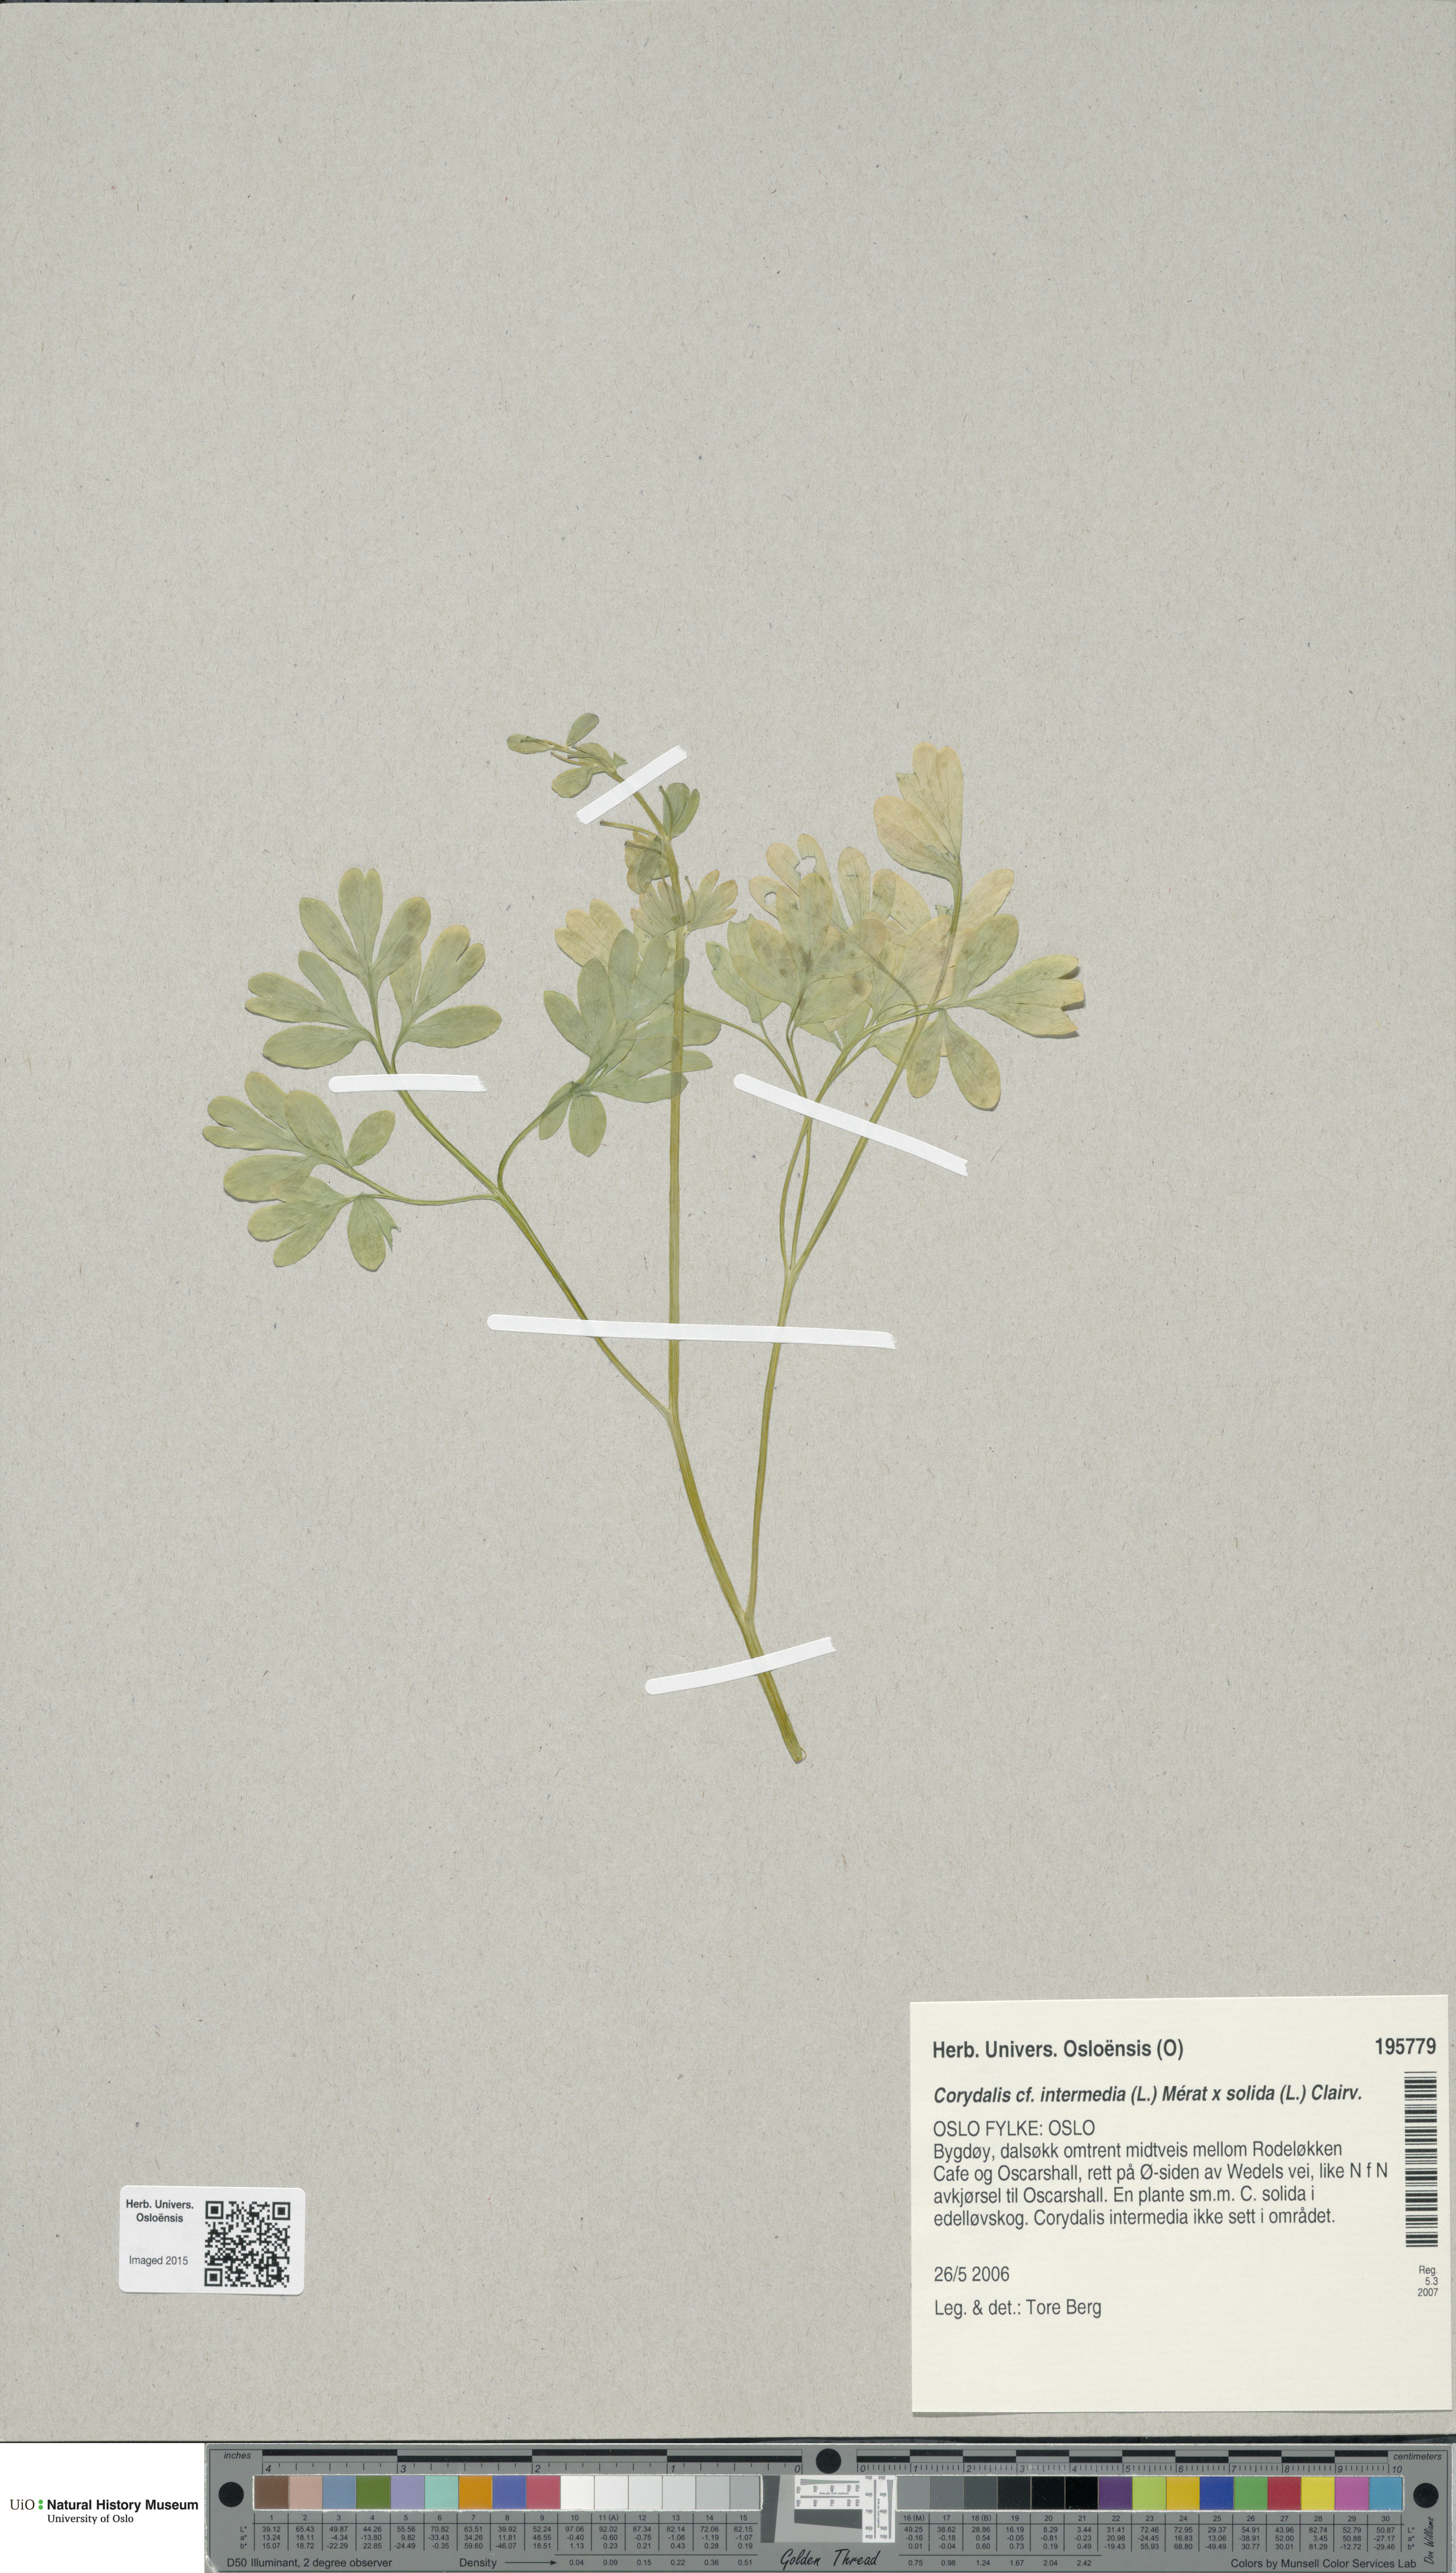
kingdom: Plantae
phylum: Tracheophyta
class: Magnoliopsida
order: Ranunculales
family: Papaveraceae
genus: Corydalis
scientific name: Corydalis
